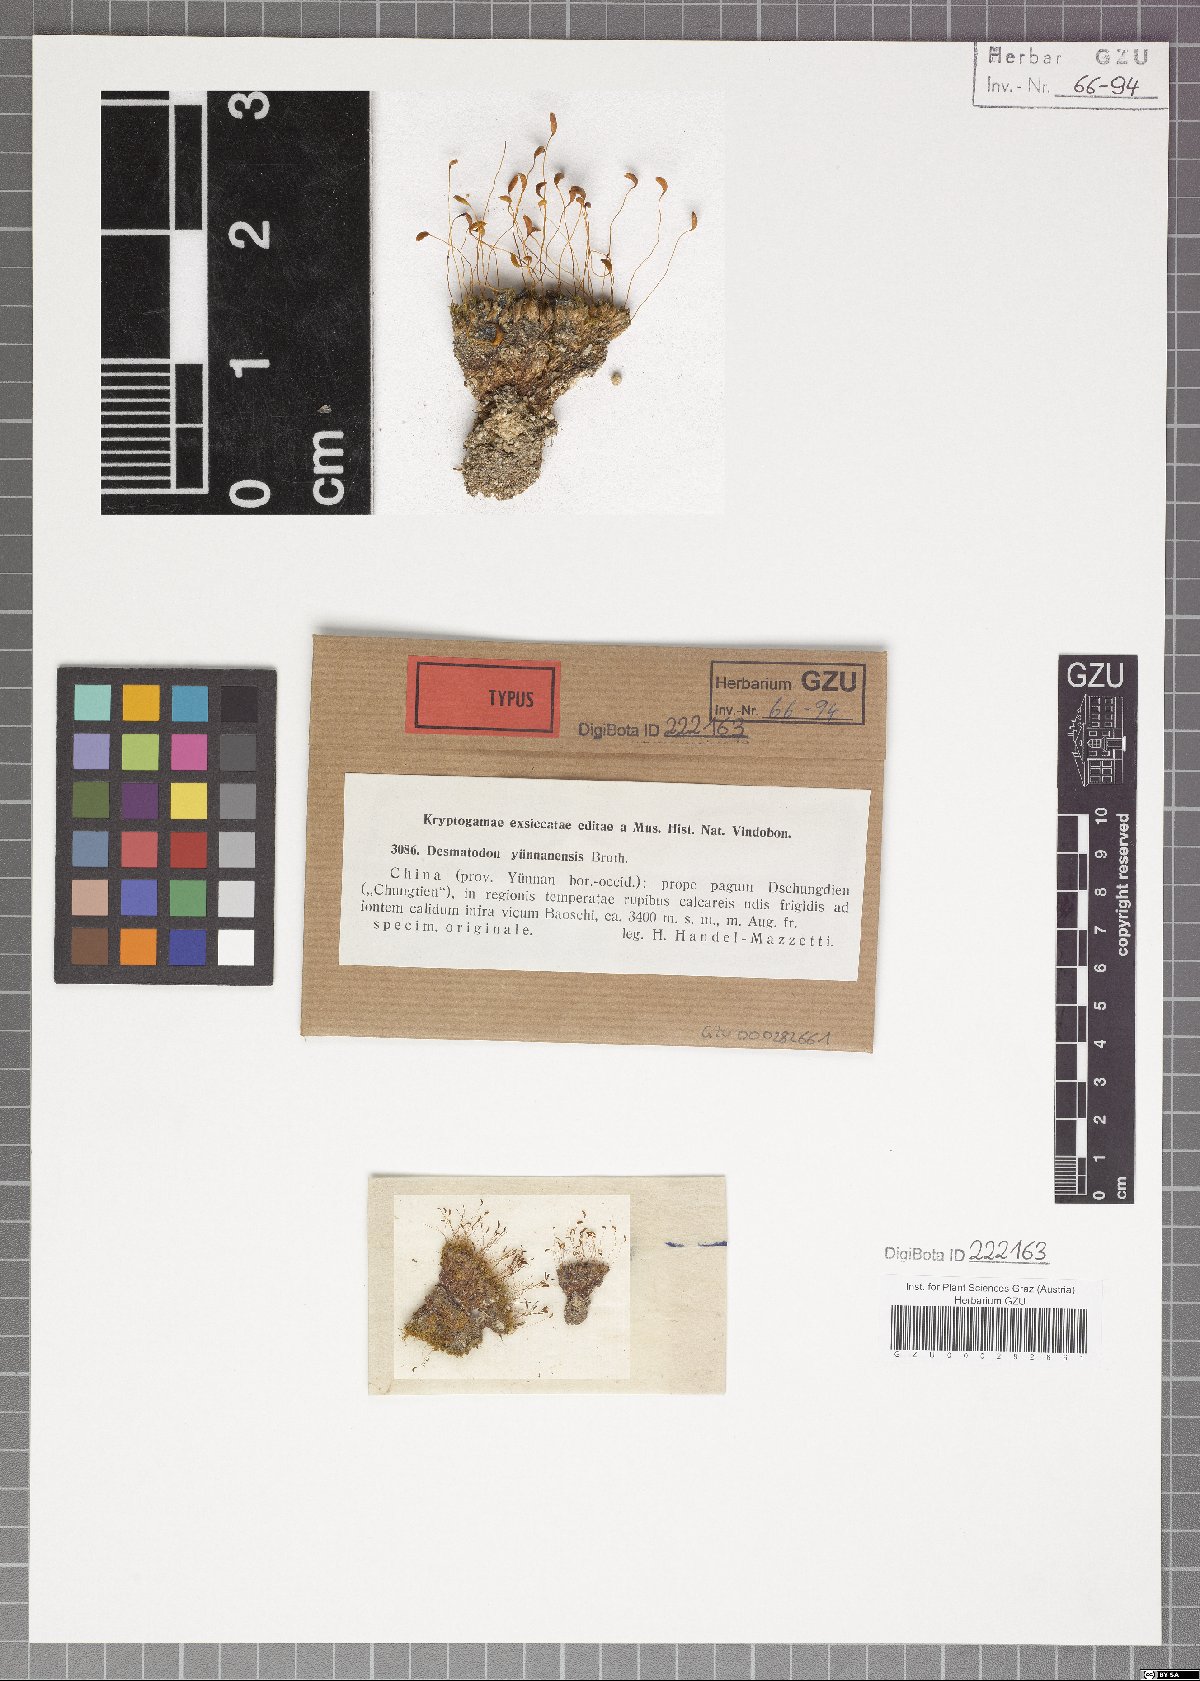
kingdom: Animalia
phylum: Chordata
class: Amphibia
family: Diadectidae
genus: Desmatodon
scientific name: Desmatodon
